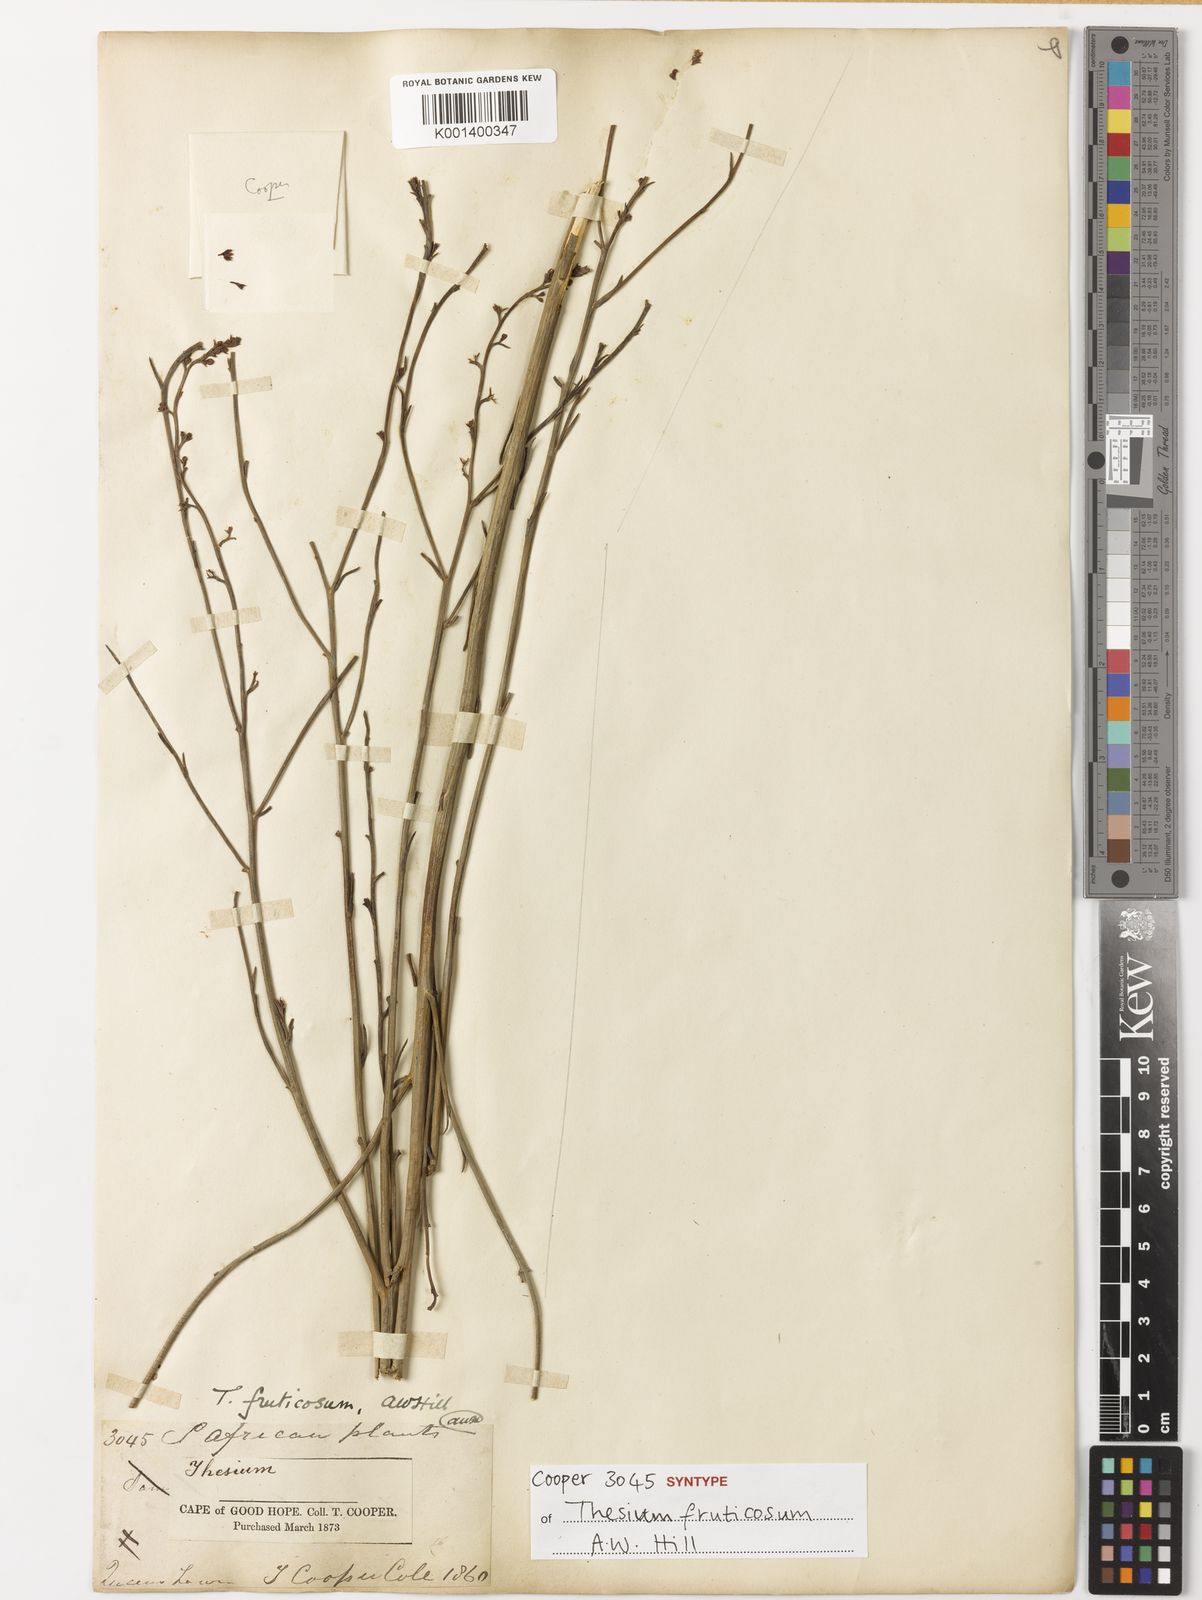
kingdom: Plantae
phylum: Tracheophyta
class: Magnoliopsida
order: Santalales
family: Thesiaceae
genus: Thesium
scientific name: Thesium fruticosum
